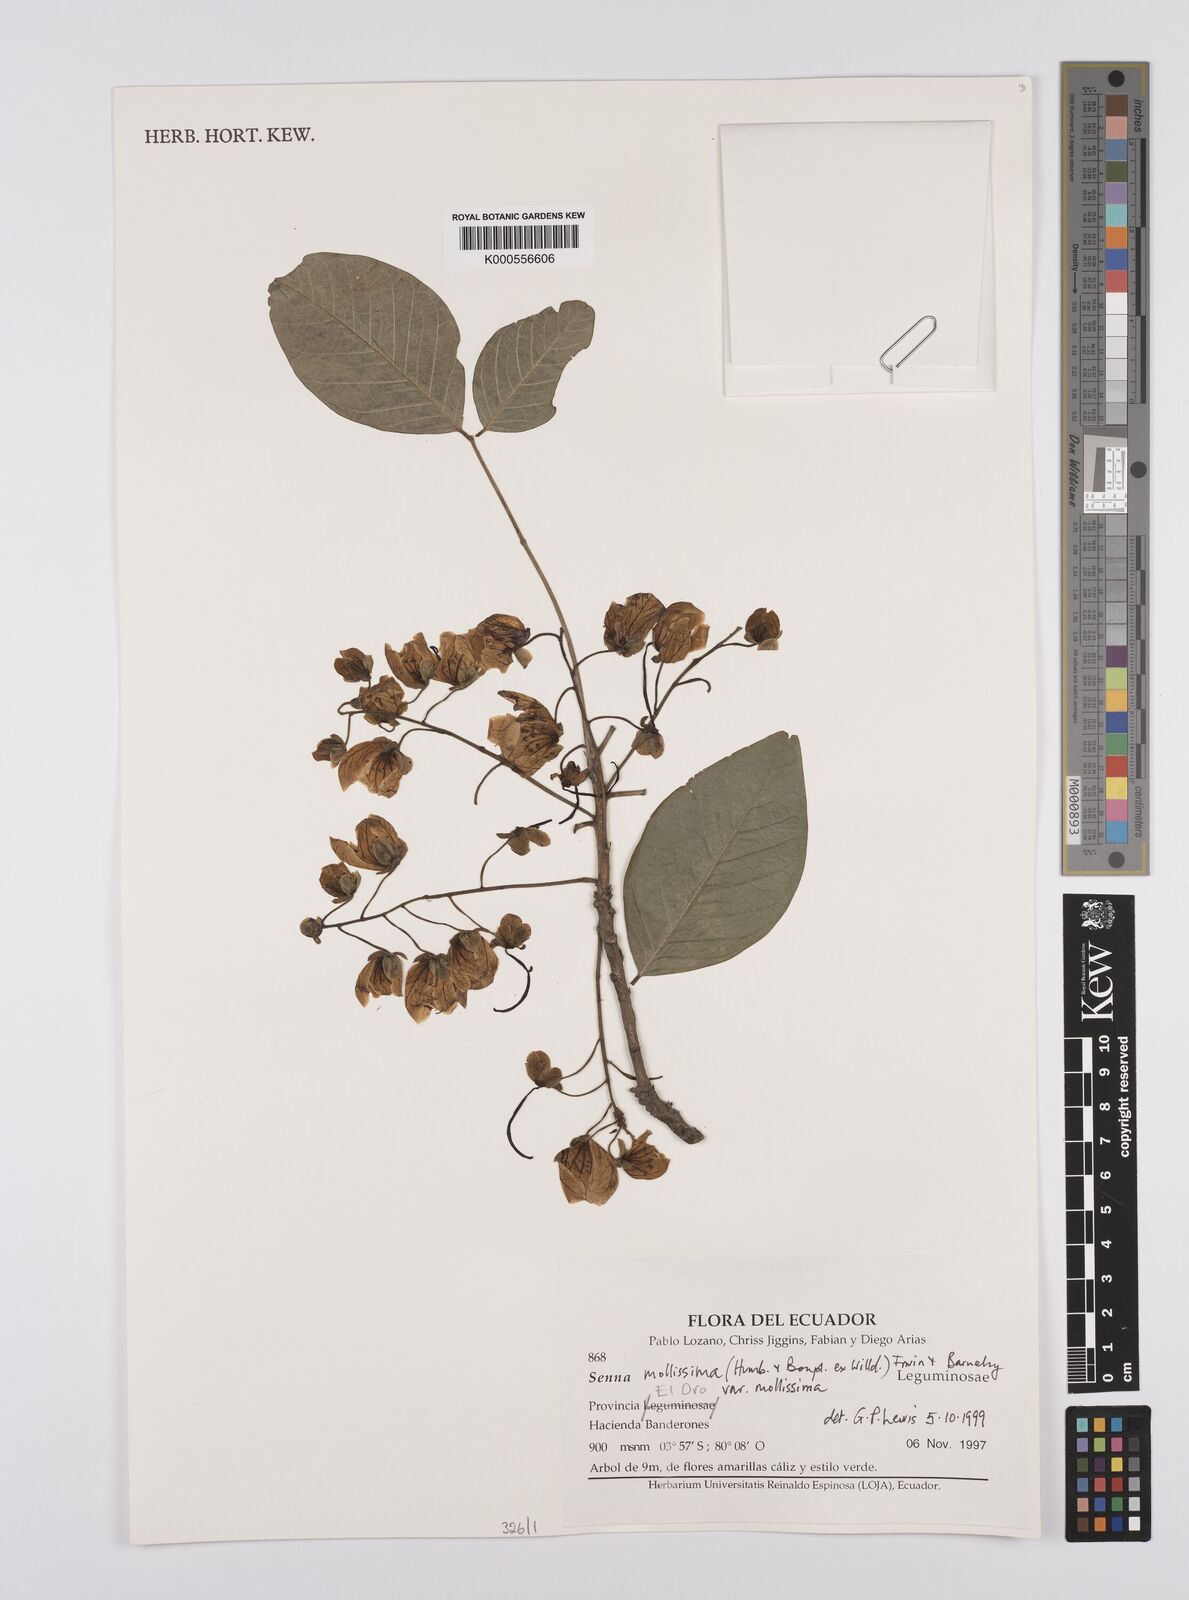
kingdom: Plantae
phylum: Tracheophyta
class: Magnoliopsida
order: Fabales
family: Fabaceae
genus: Senna
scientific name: Senna mollissima
